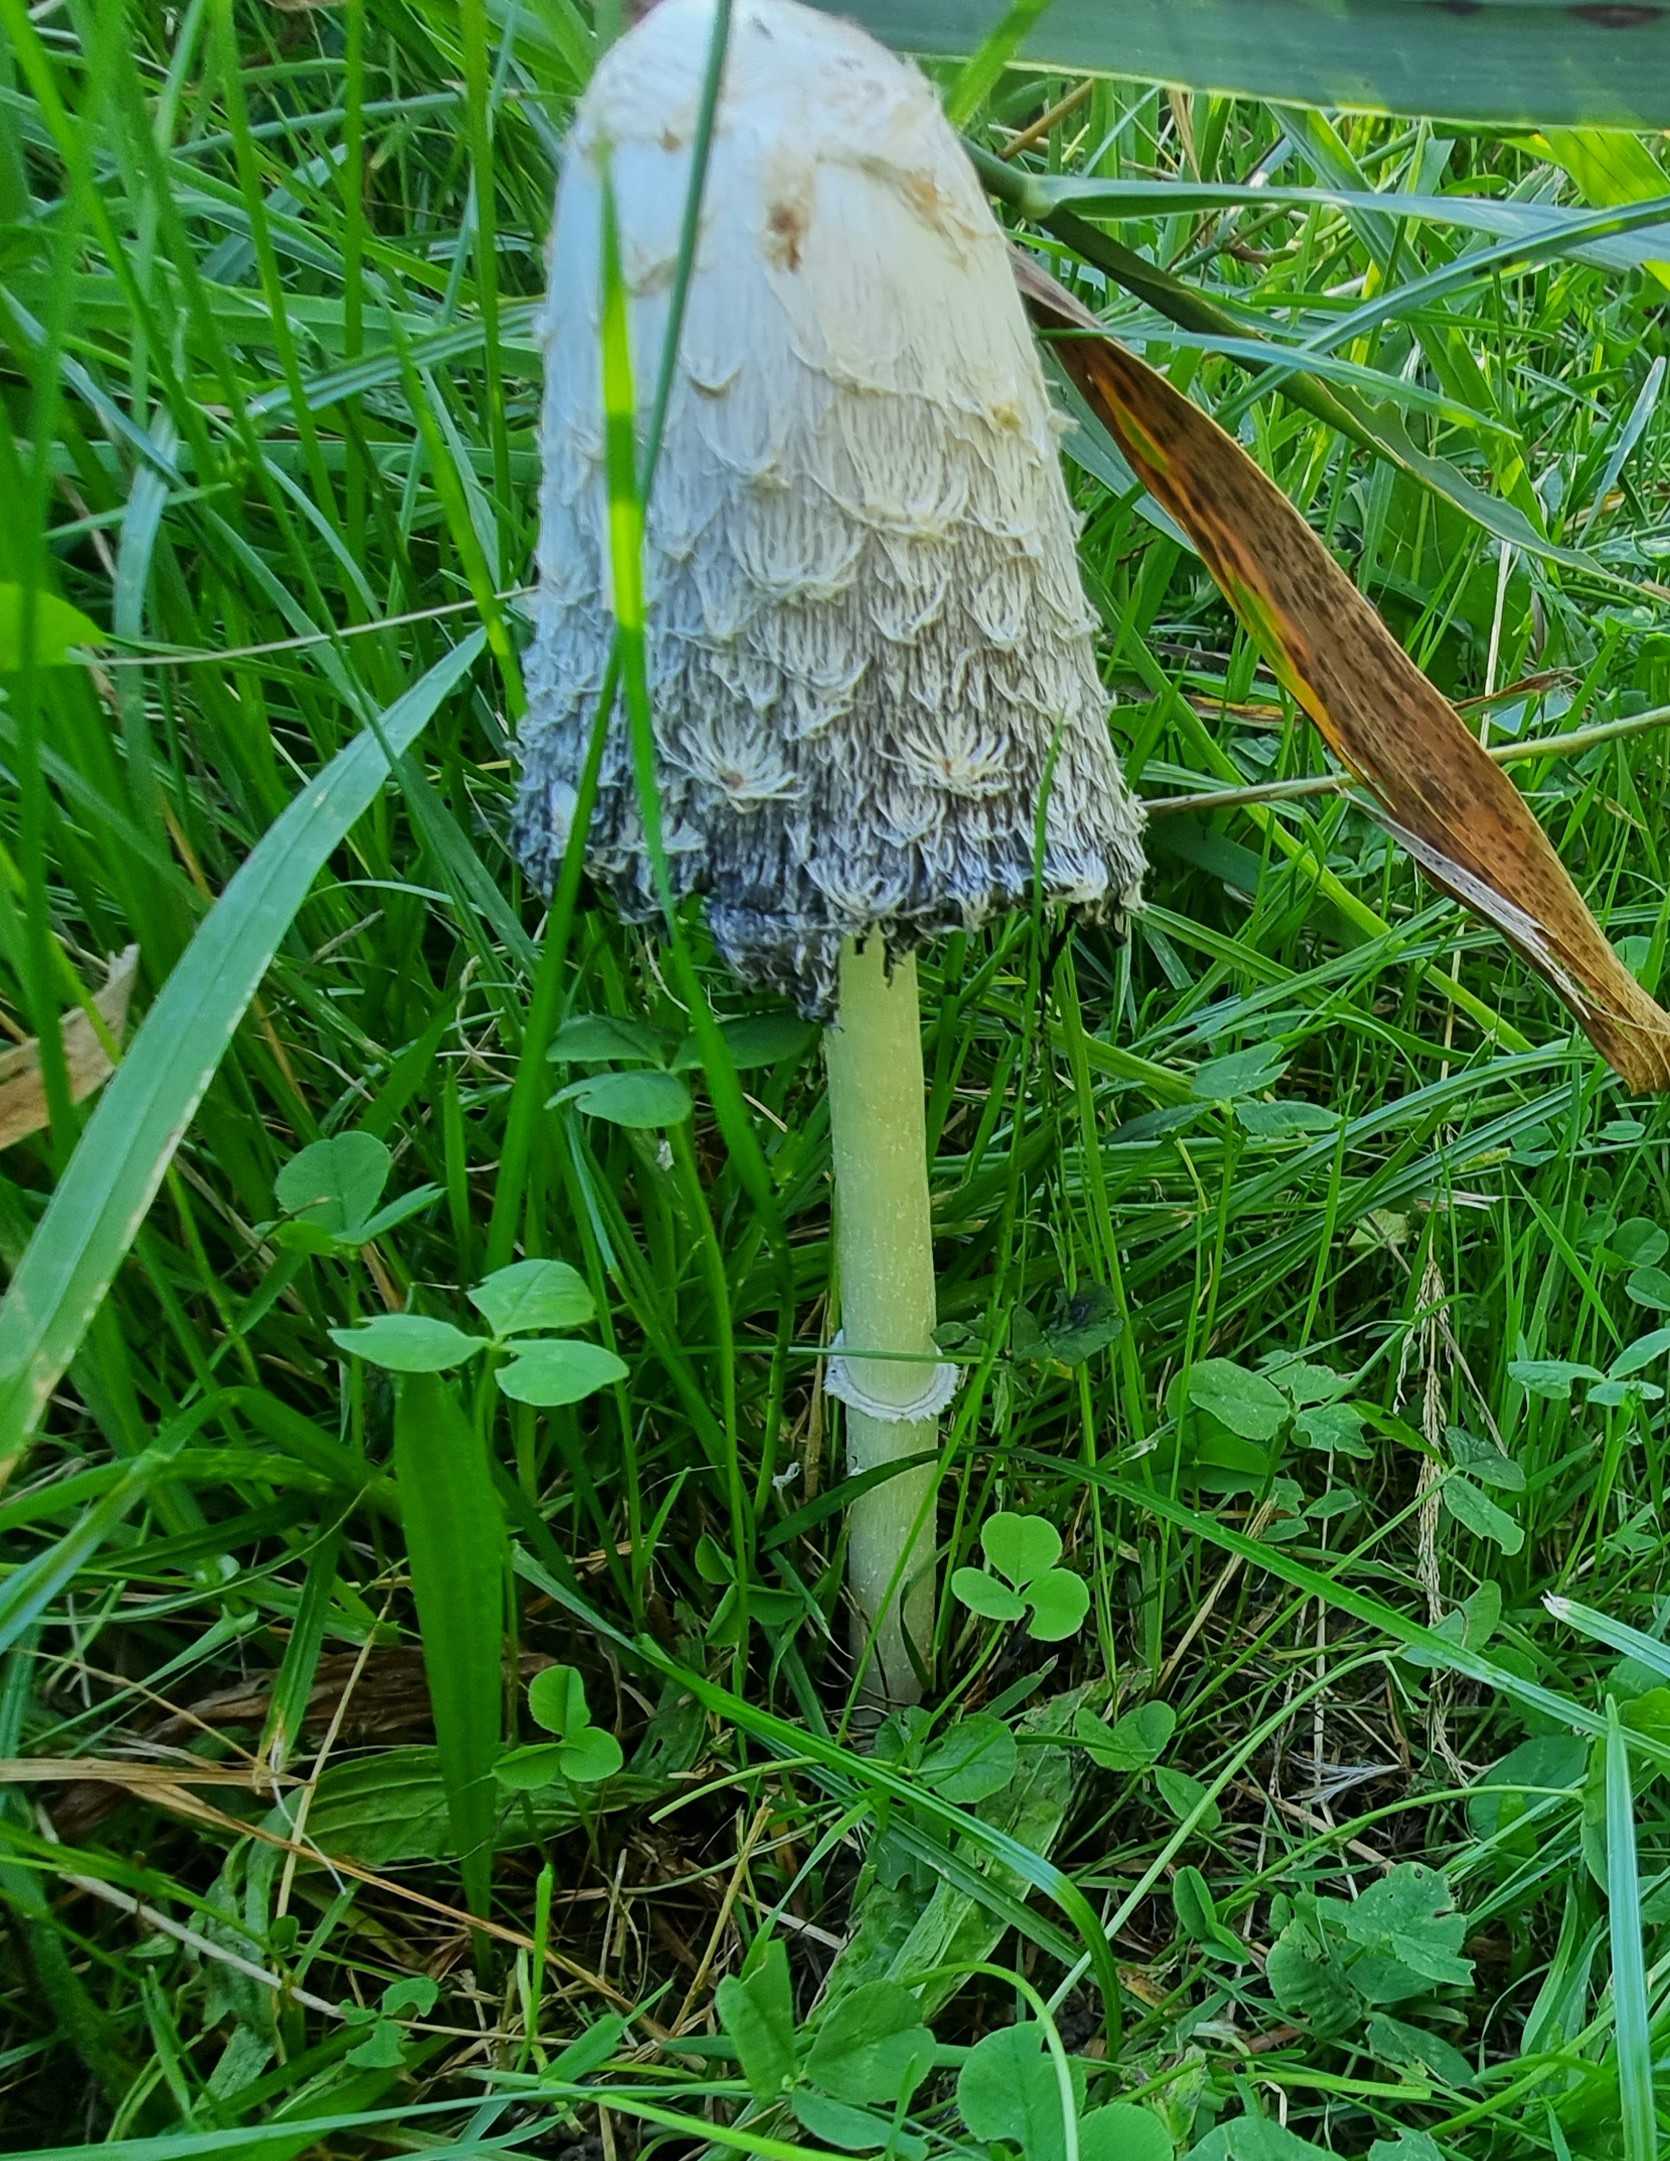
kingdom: Fungi
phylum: Basidiomycota
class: Agaricomycetes
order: Agaricales
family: Agaricaceae
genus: Coprinus
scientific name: Coprinus comatus
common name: stor parykhat
